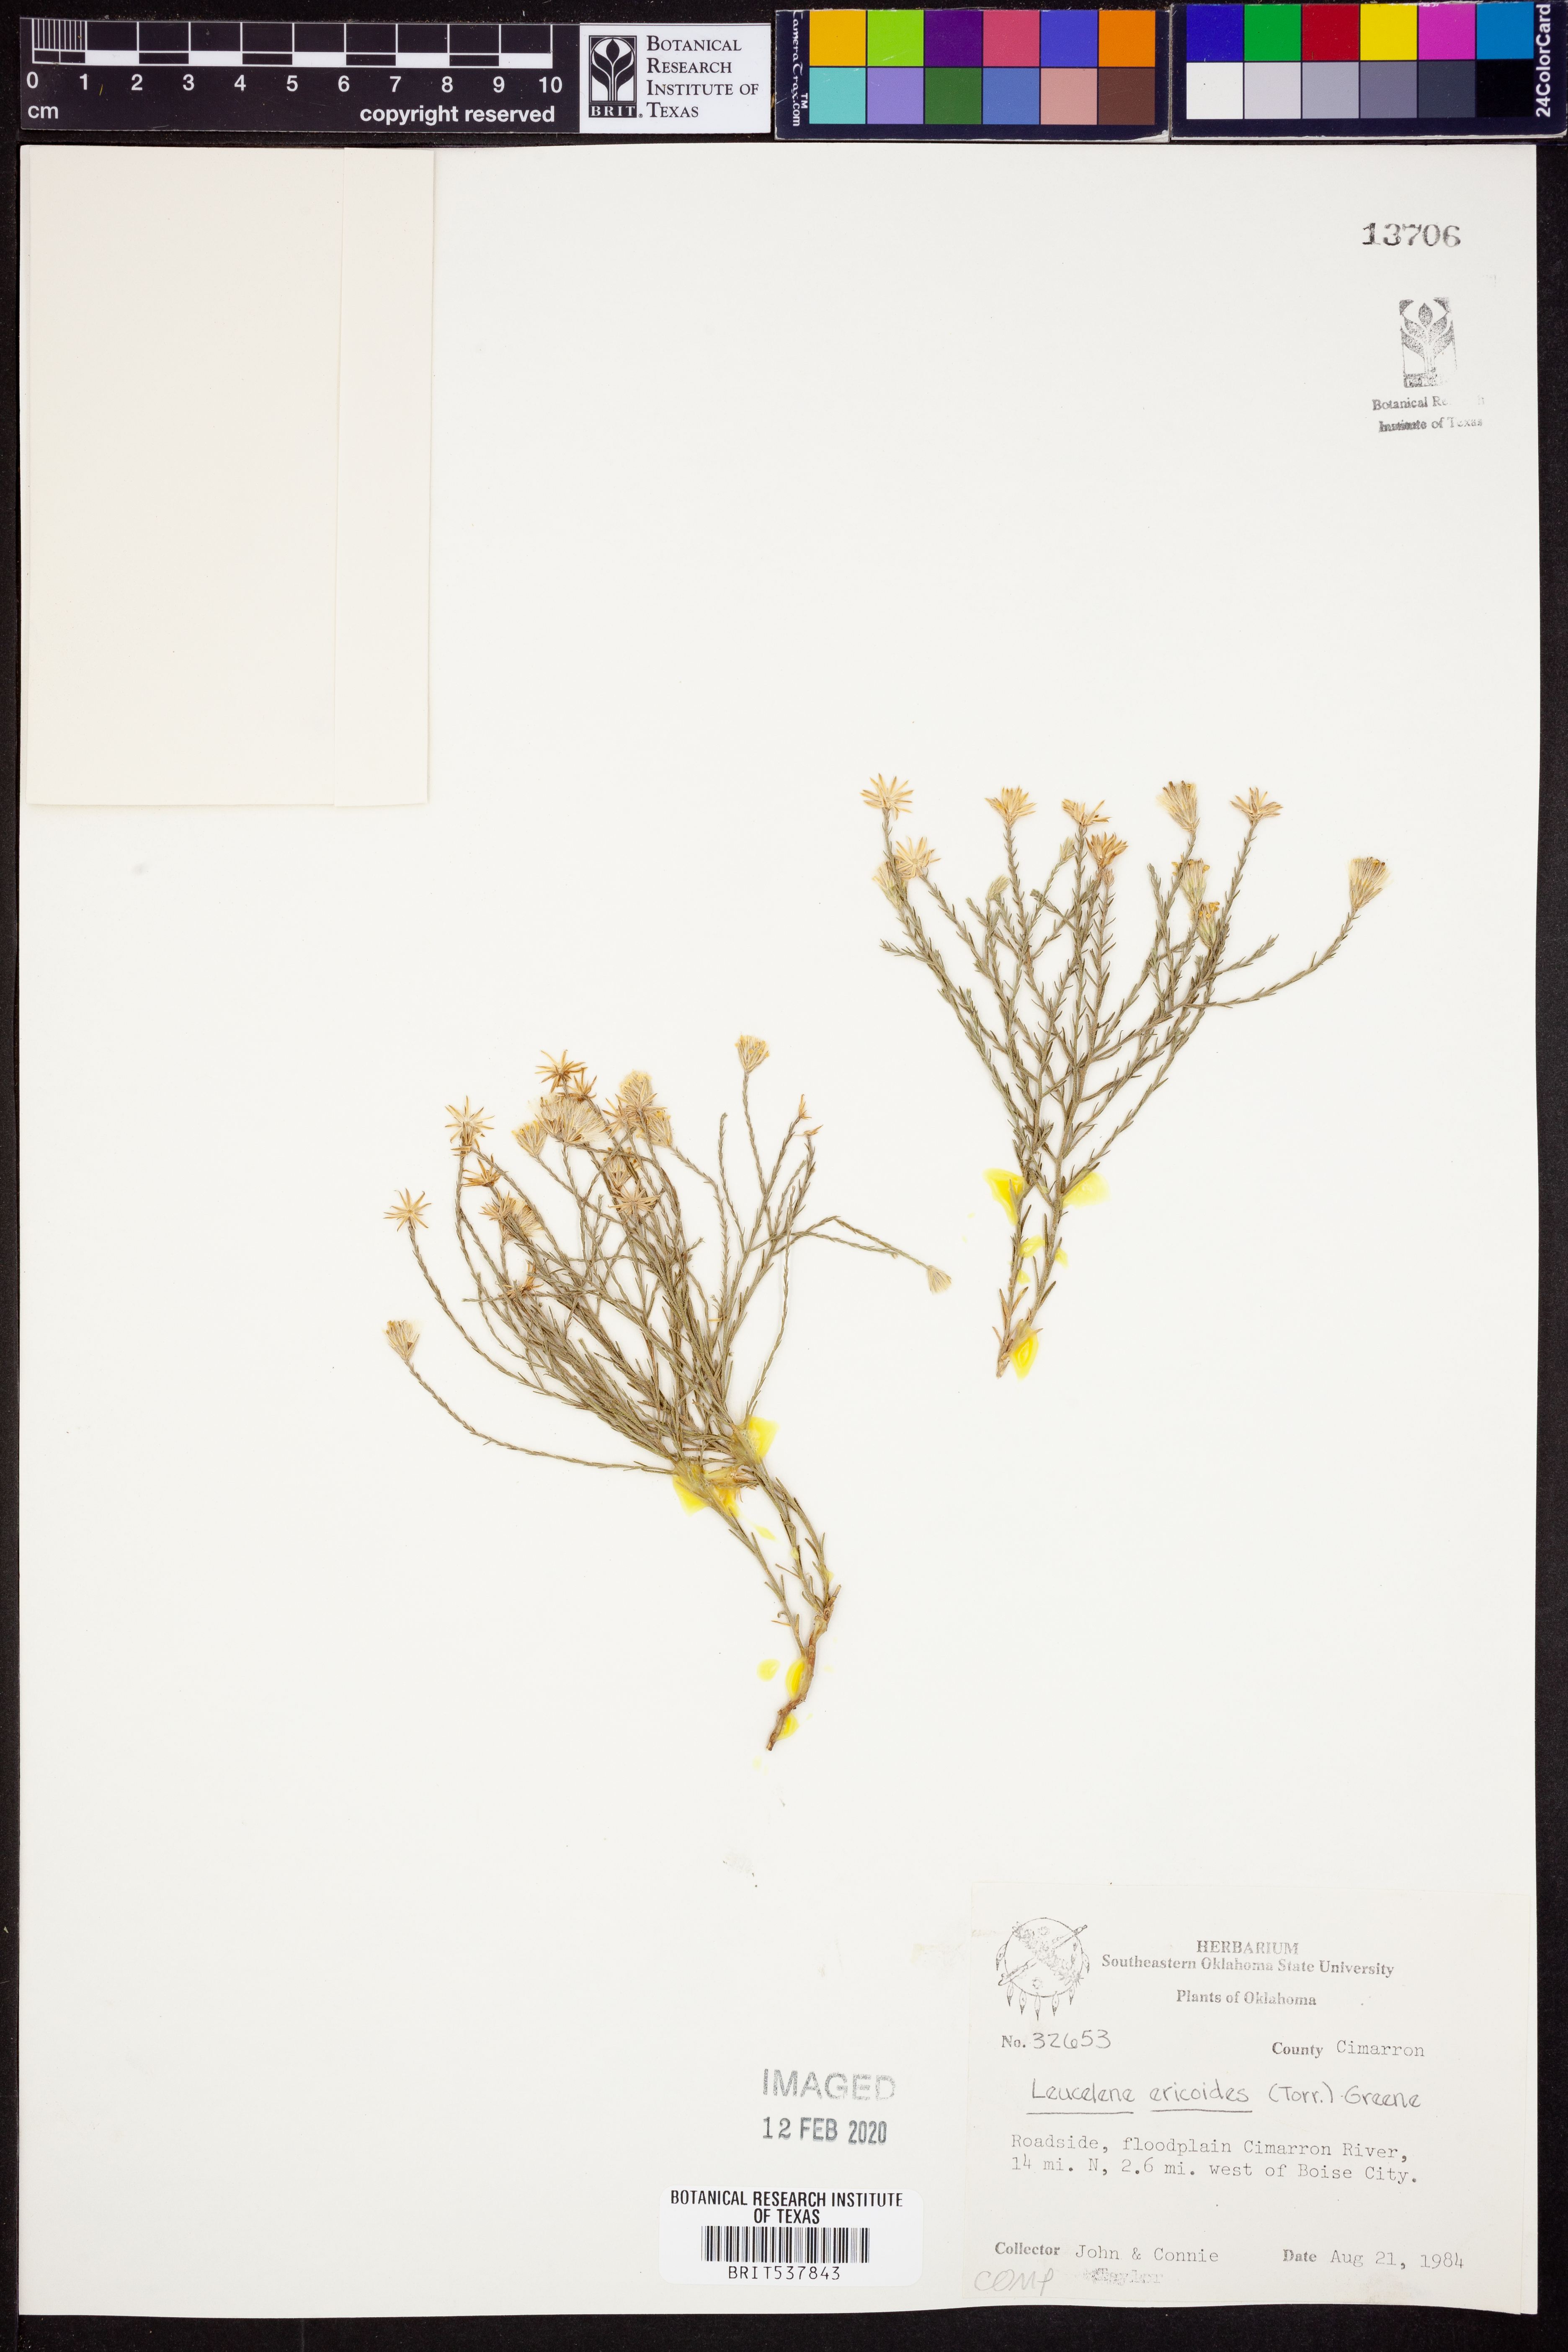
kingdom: Plantae
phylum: Tracheophyta
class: Magnoliopsida
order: Asterales
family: Asteraceae
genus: Chaetopappa
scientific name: Chaetopappa ericoides
